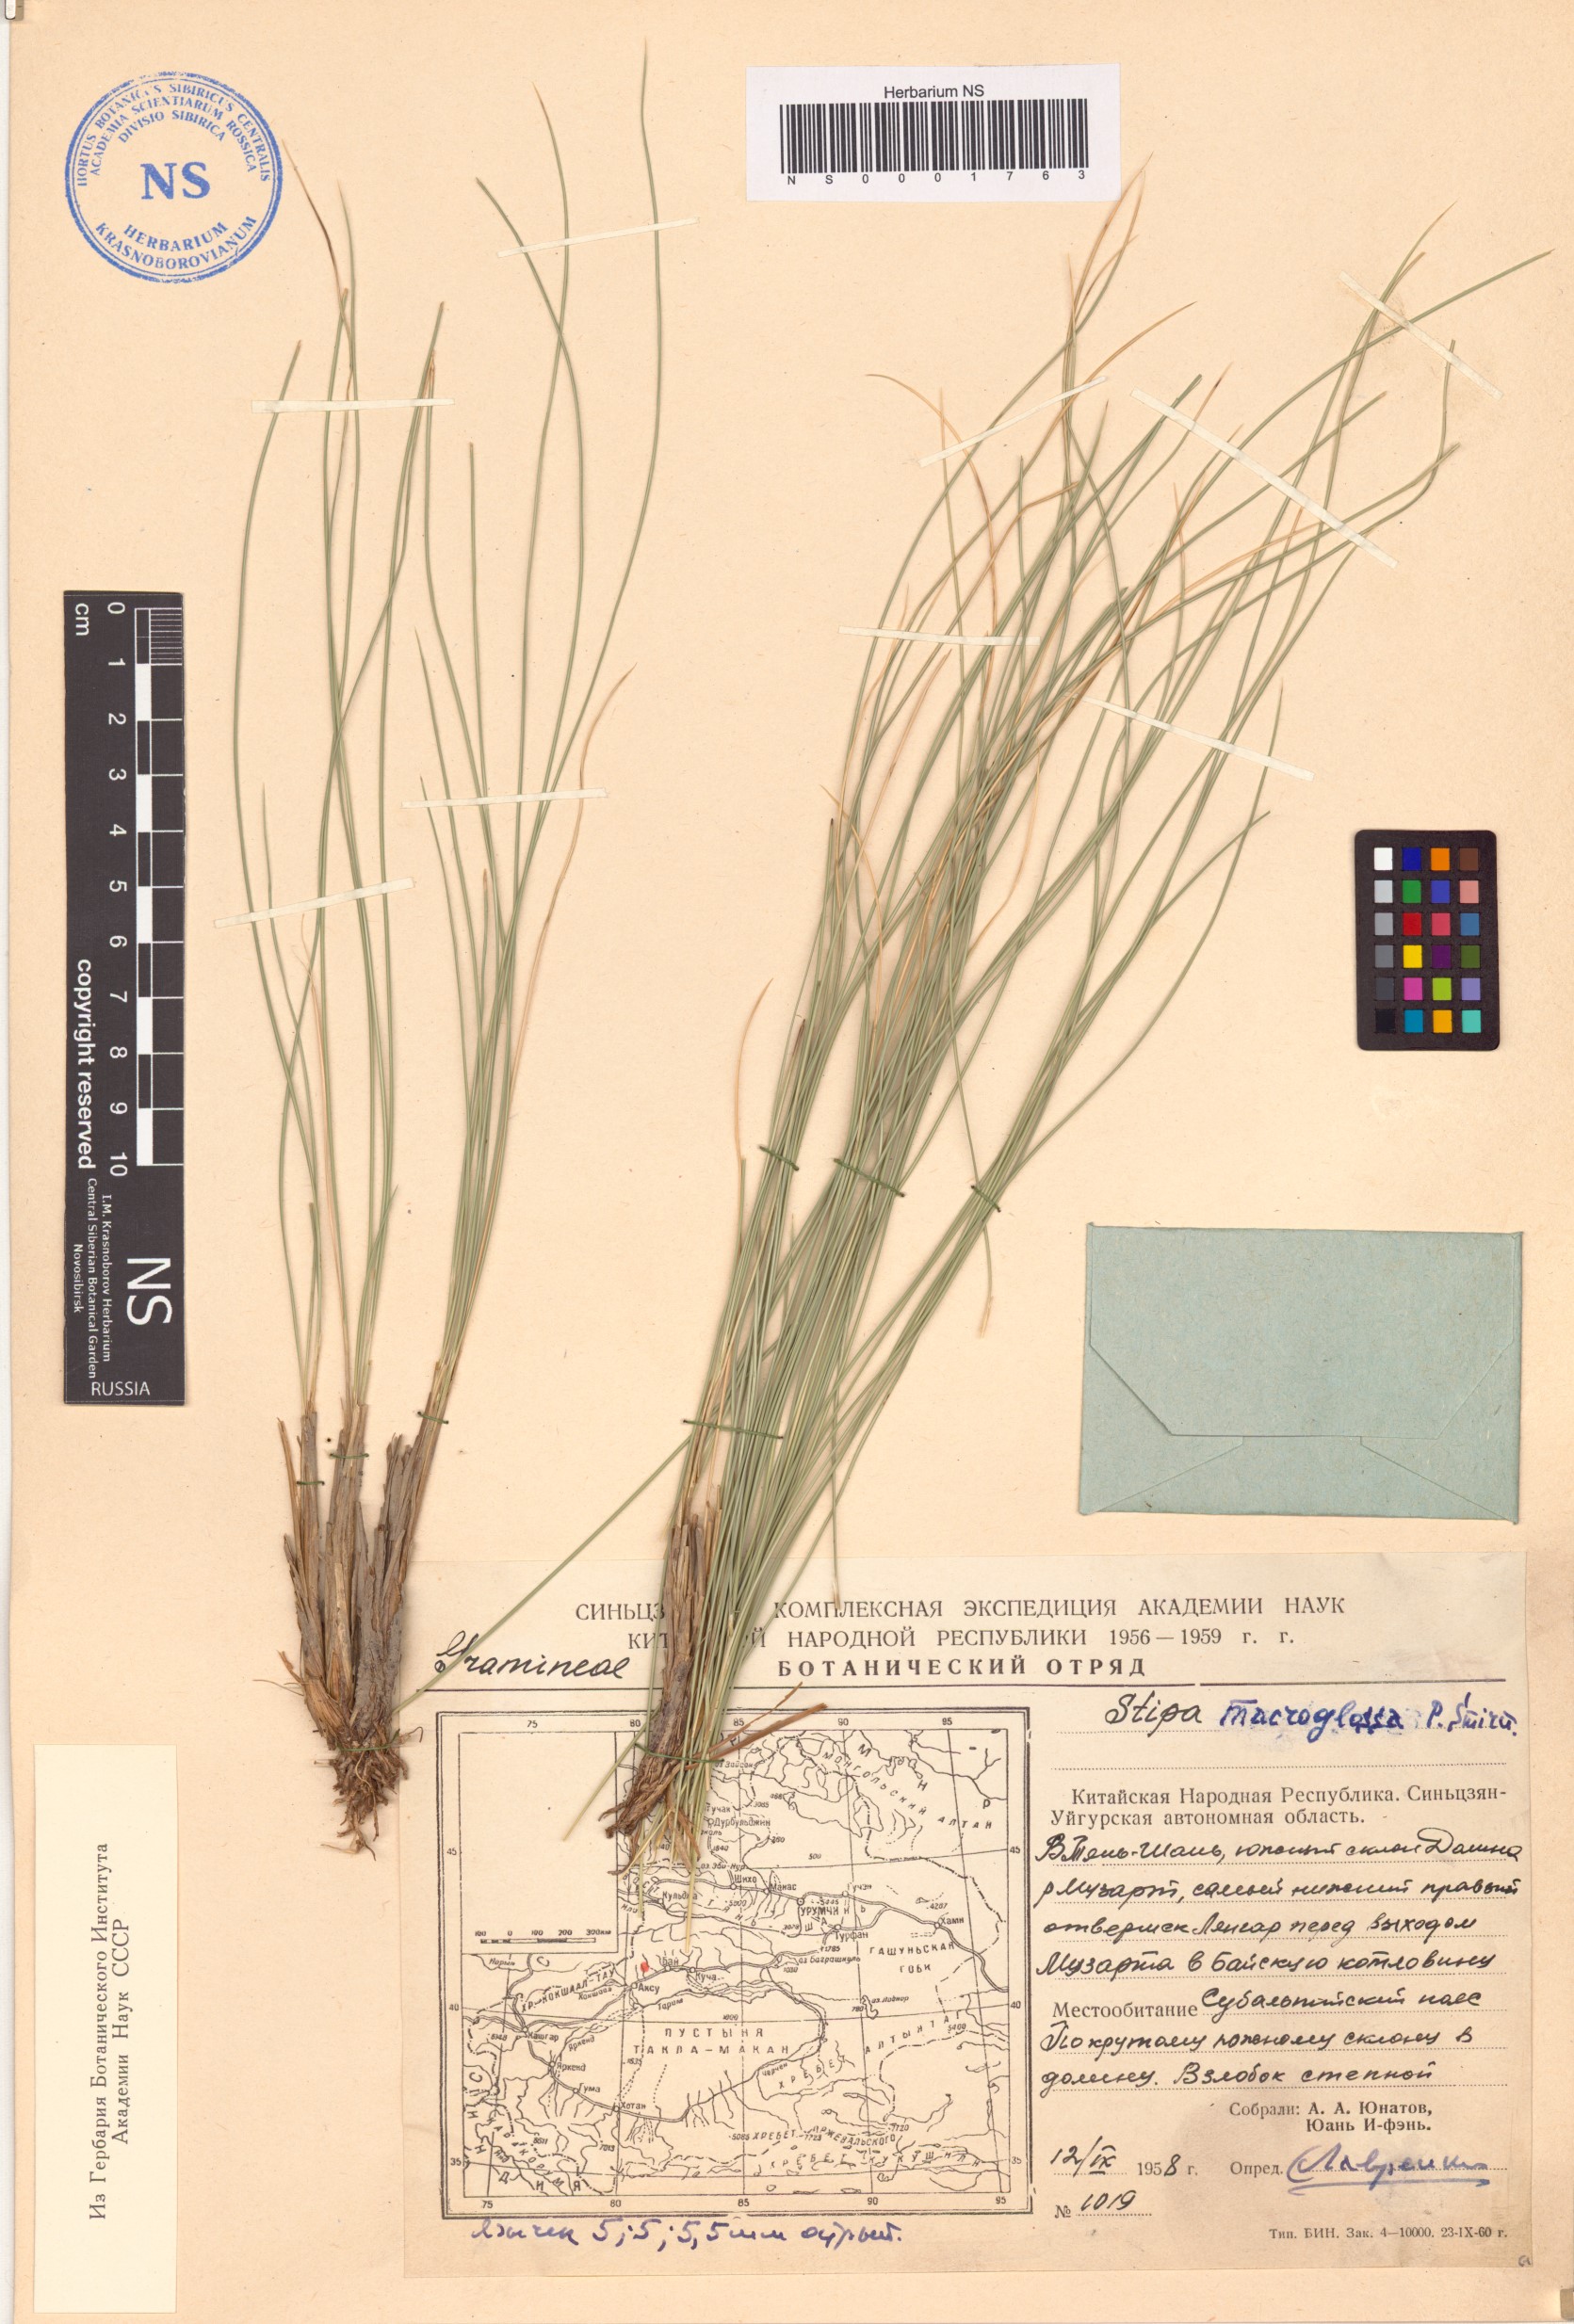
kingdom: Plantae
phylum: Tracheophyta
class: Liliopsida
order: Poales
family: Poaceae
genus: Stipa
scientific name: Stipa macroglossa
